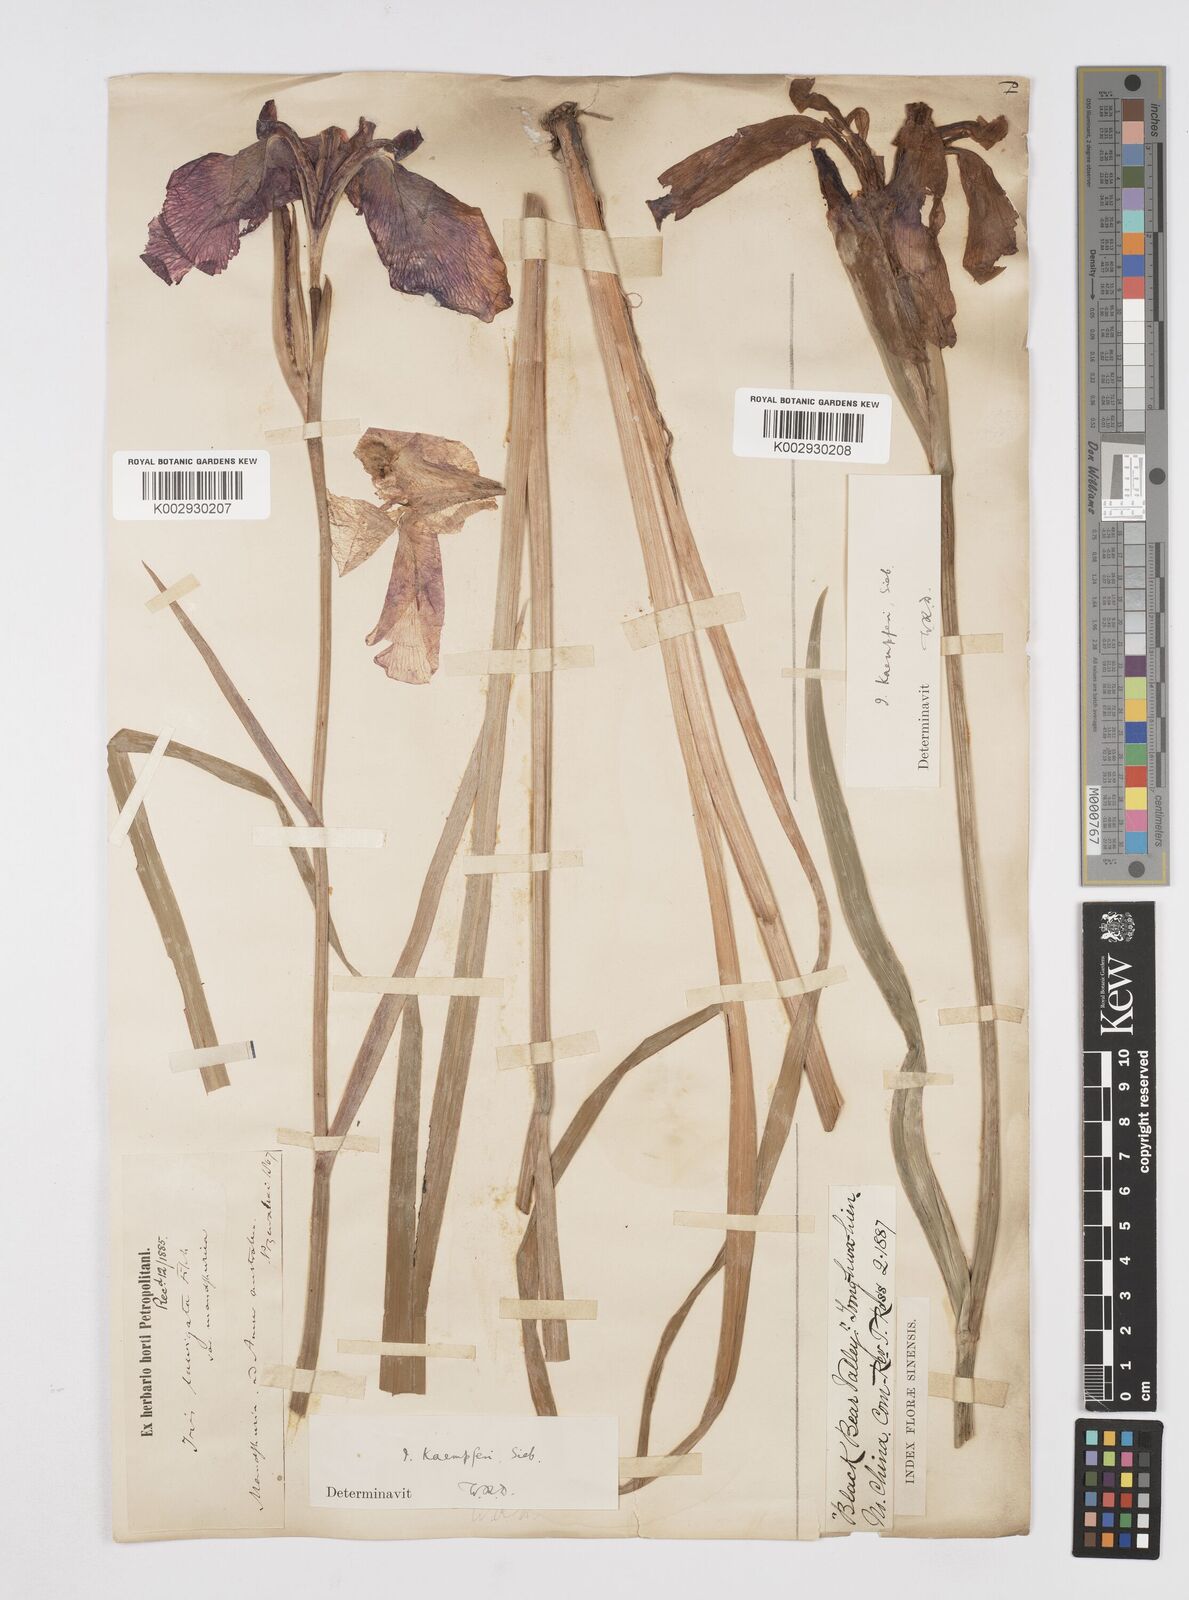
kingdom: Plantae
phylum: Tracheophyta
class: Liliopsida
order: Asparagales
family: Iridaceae
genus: Iris
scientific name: Iris ensata
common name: Beaked iris
